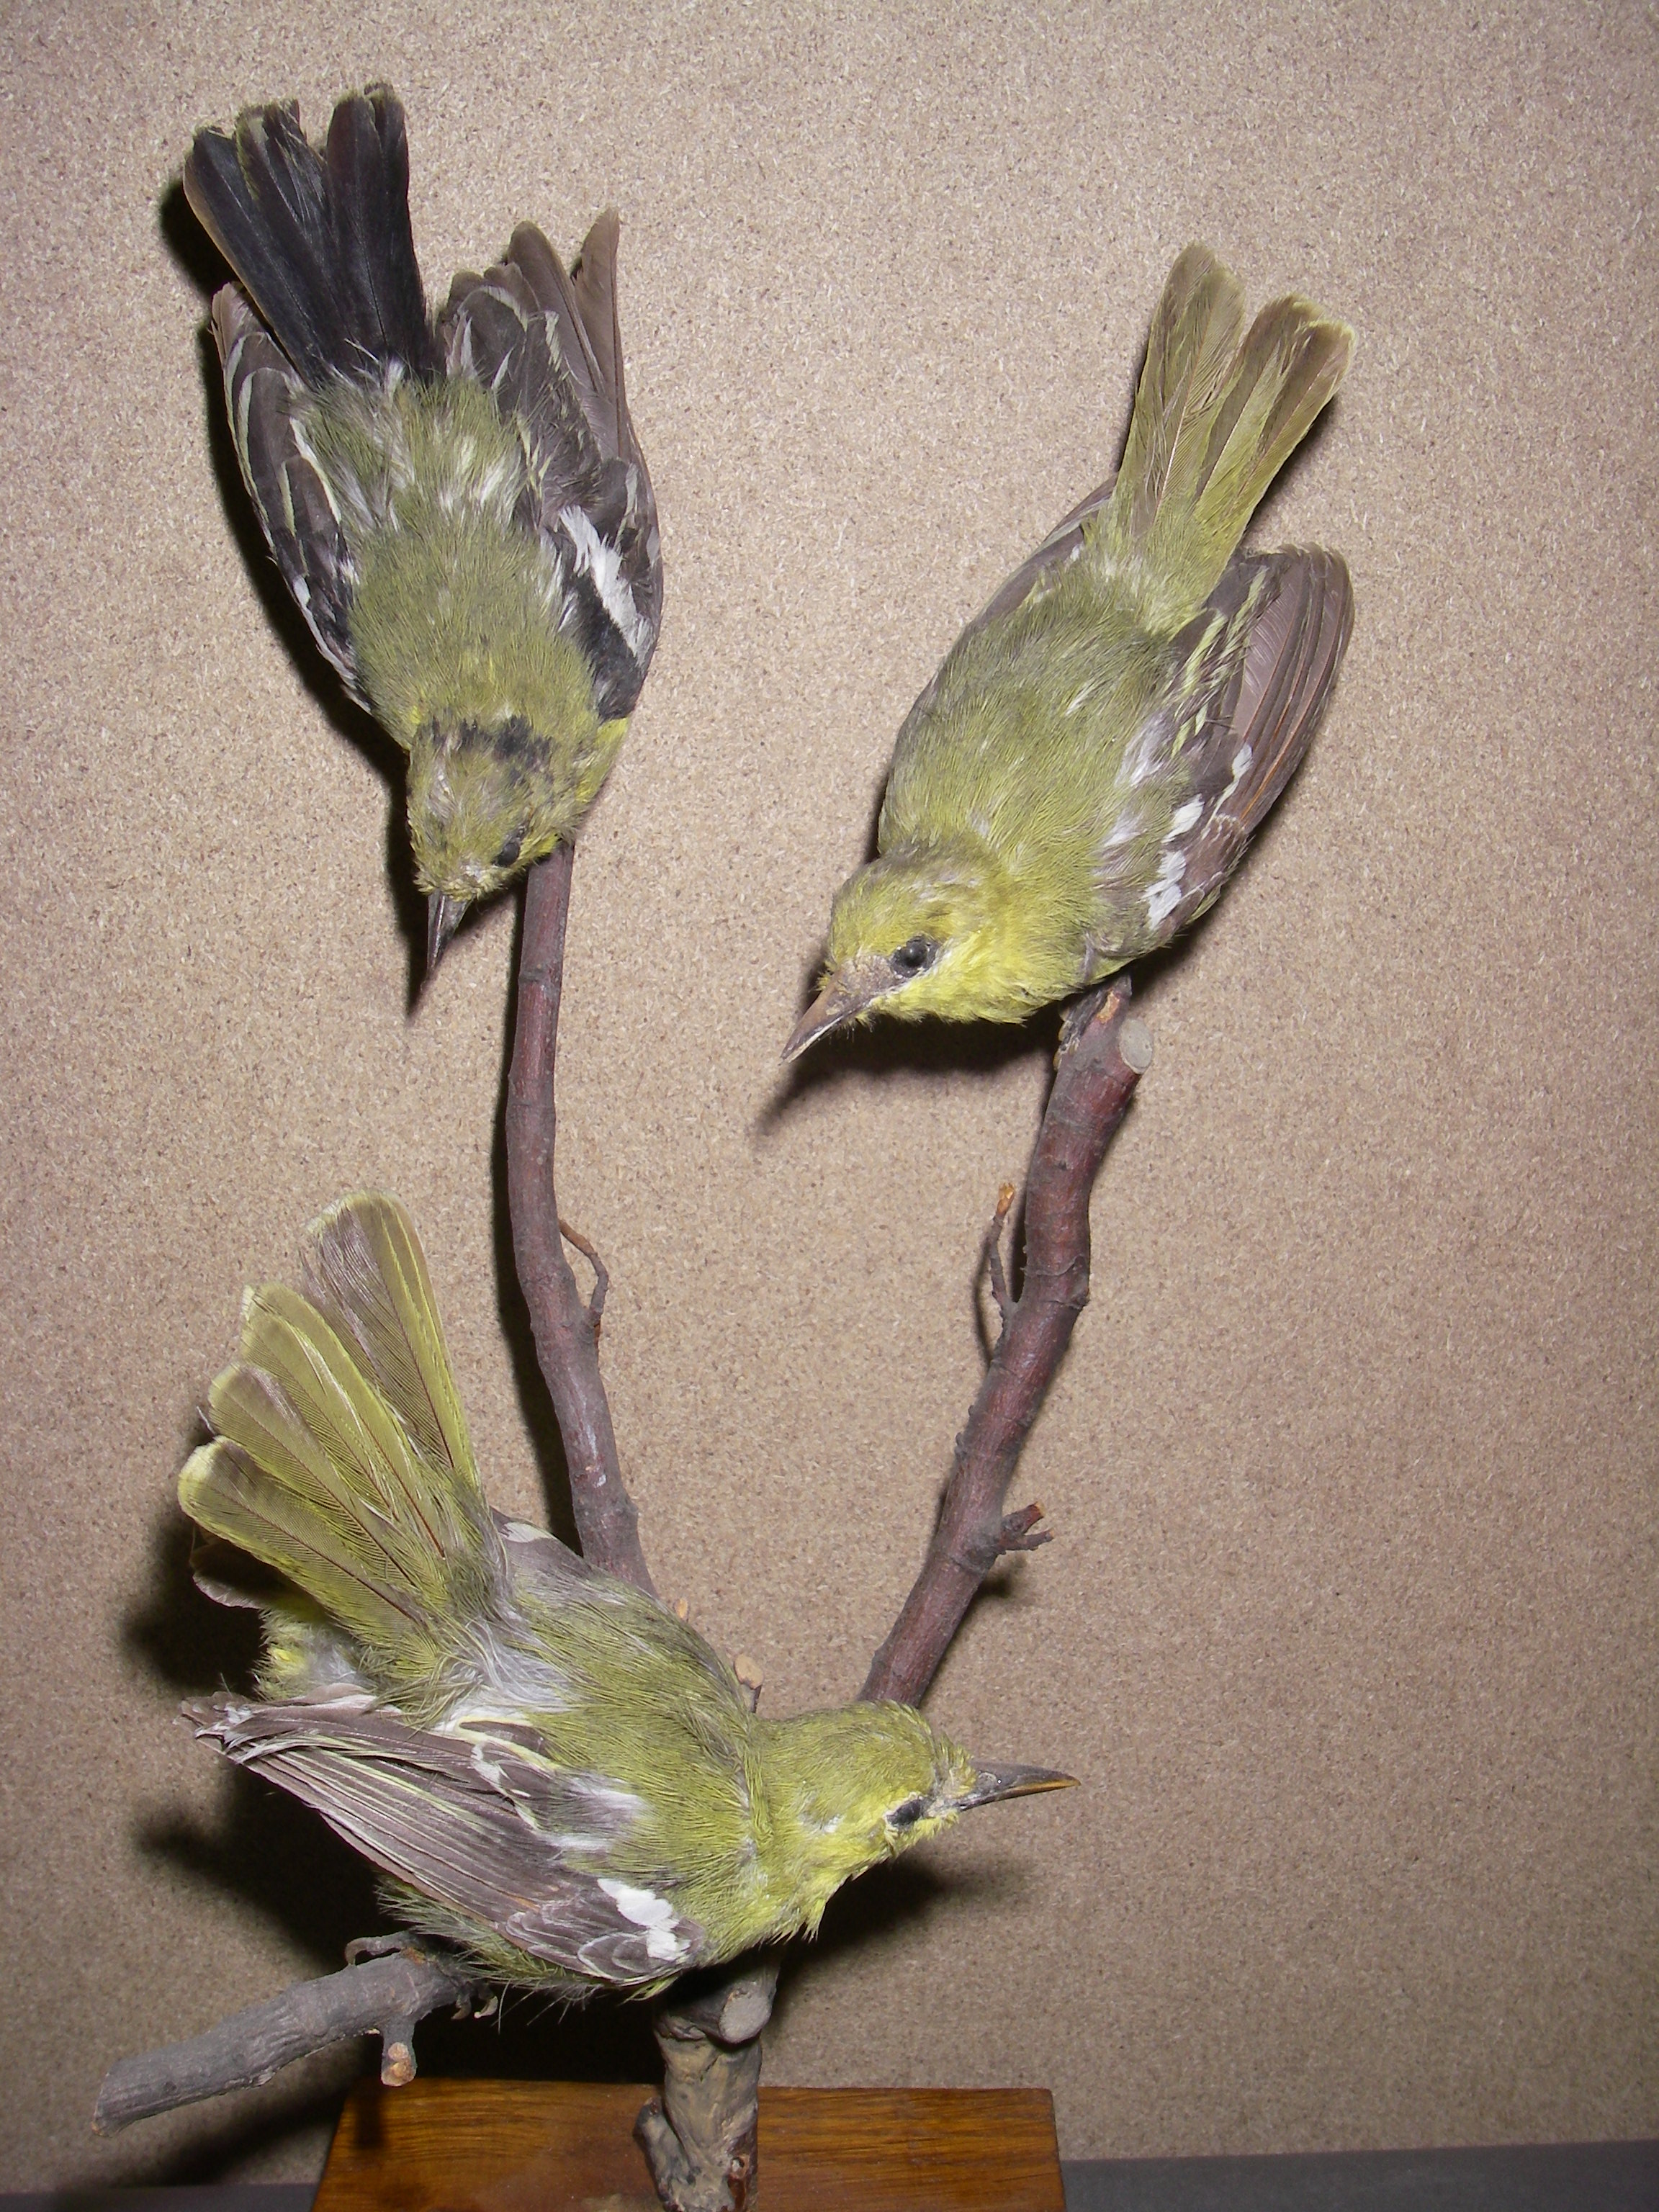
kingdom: Animalia
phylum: Chordata
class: Aves
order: Passeriformes
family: Aegithinidae
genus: Aegithina
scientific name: Aegithina tiphia
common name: Common iora
